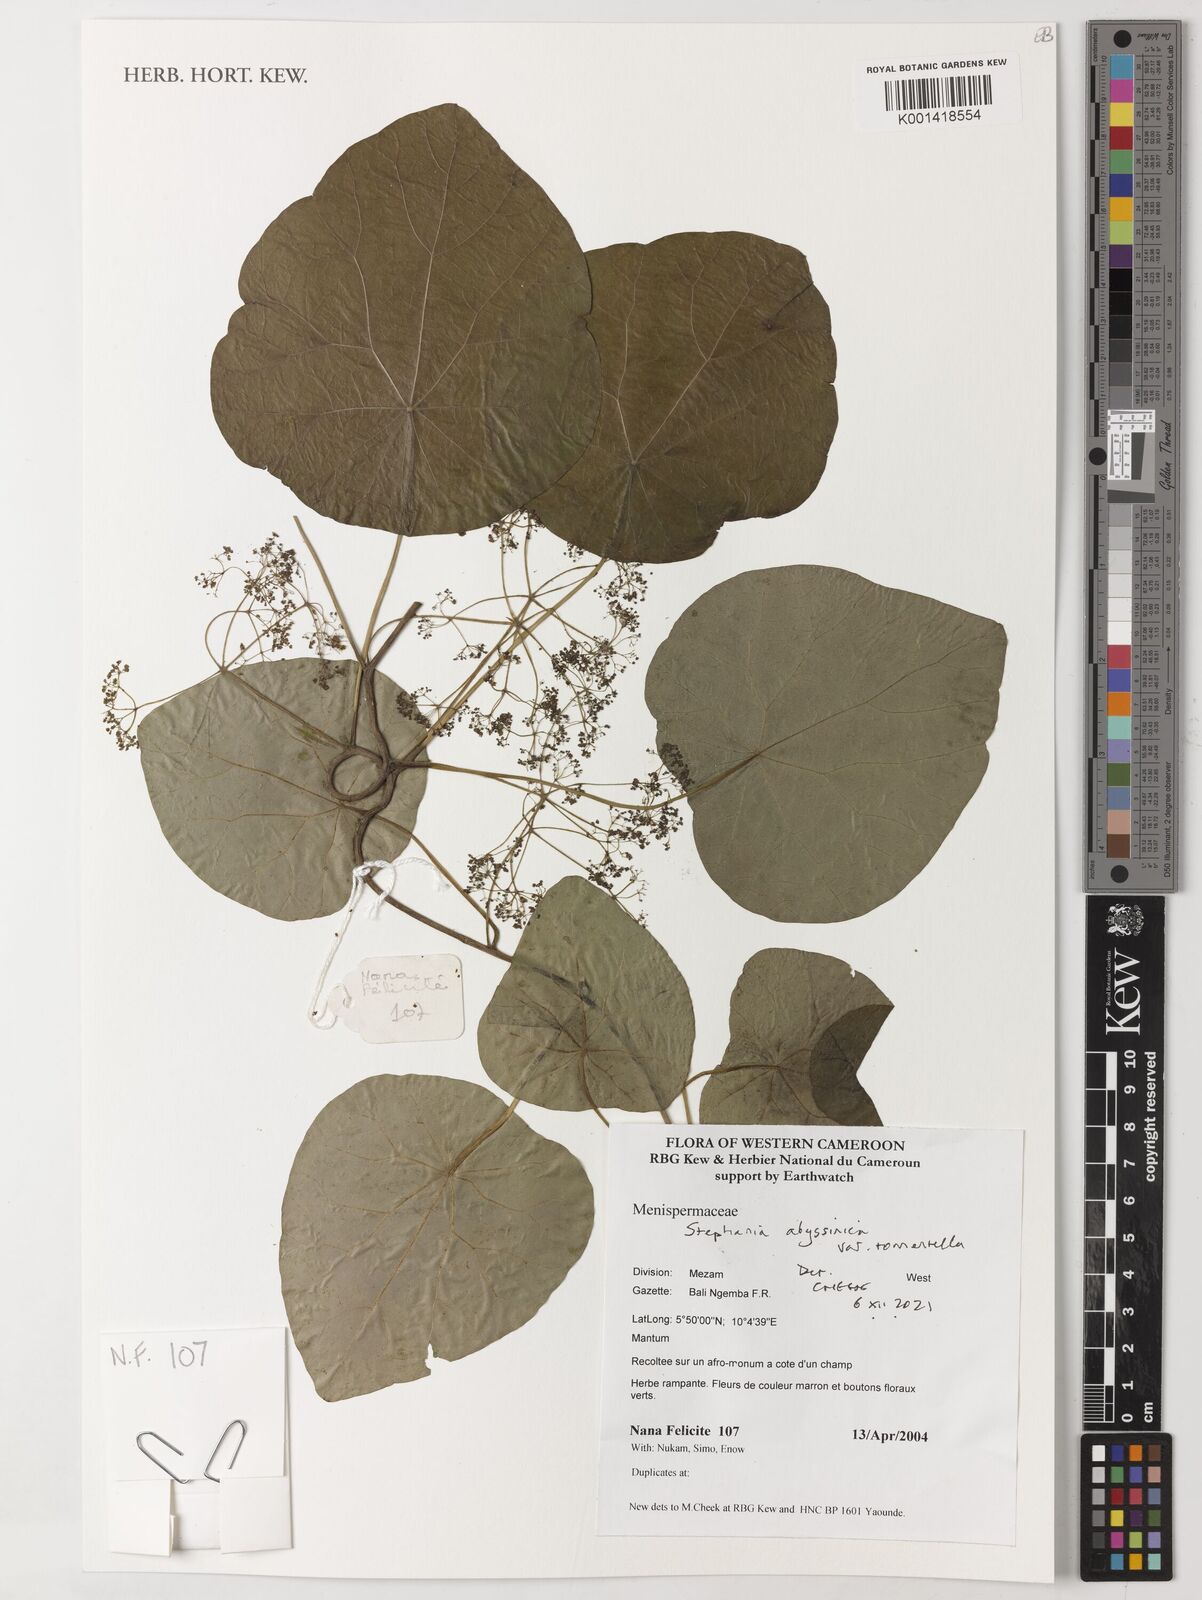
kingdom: Plantae
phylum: Tracheophyta
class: Magnoliopsida
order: Ranunculales
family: Menispermaceae
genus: Stephania
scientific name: Stephania abyssinica
